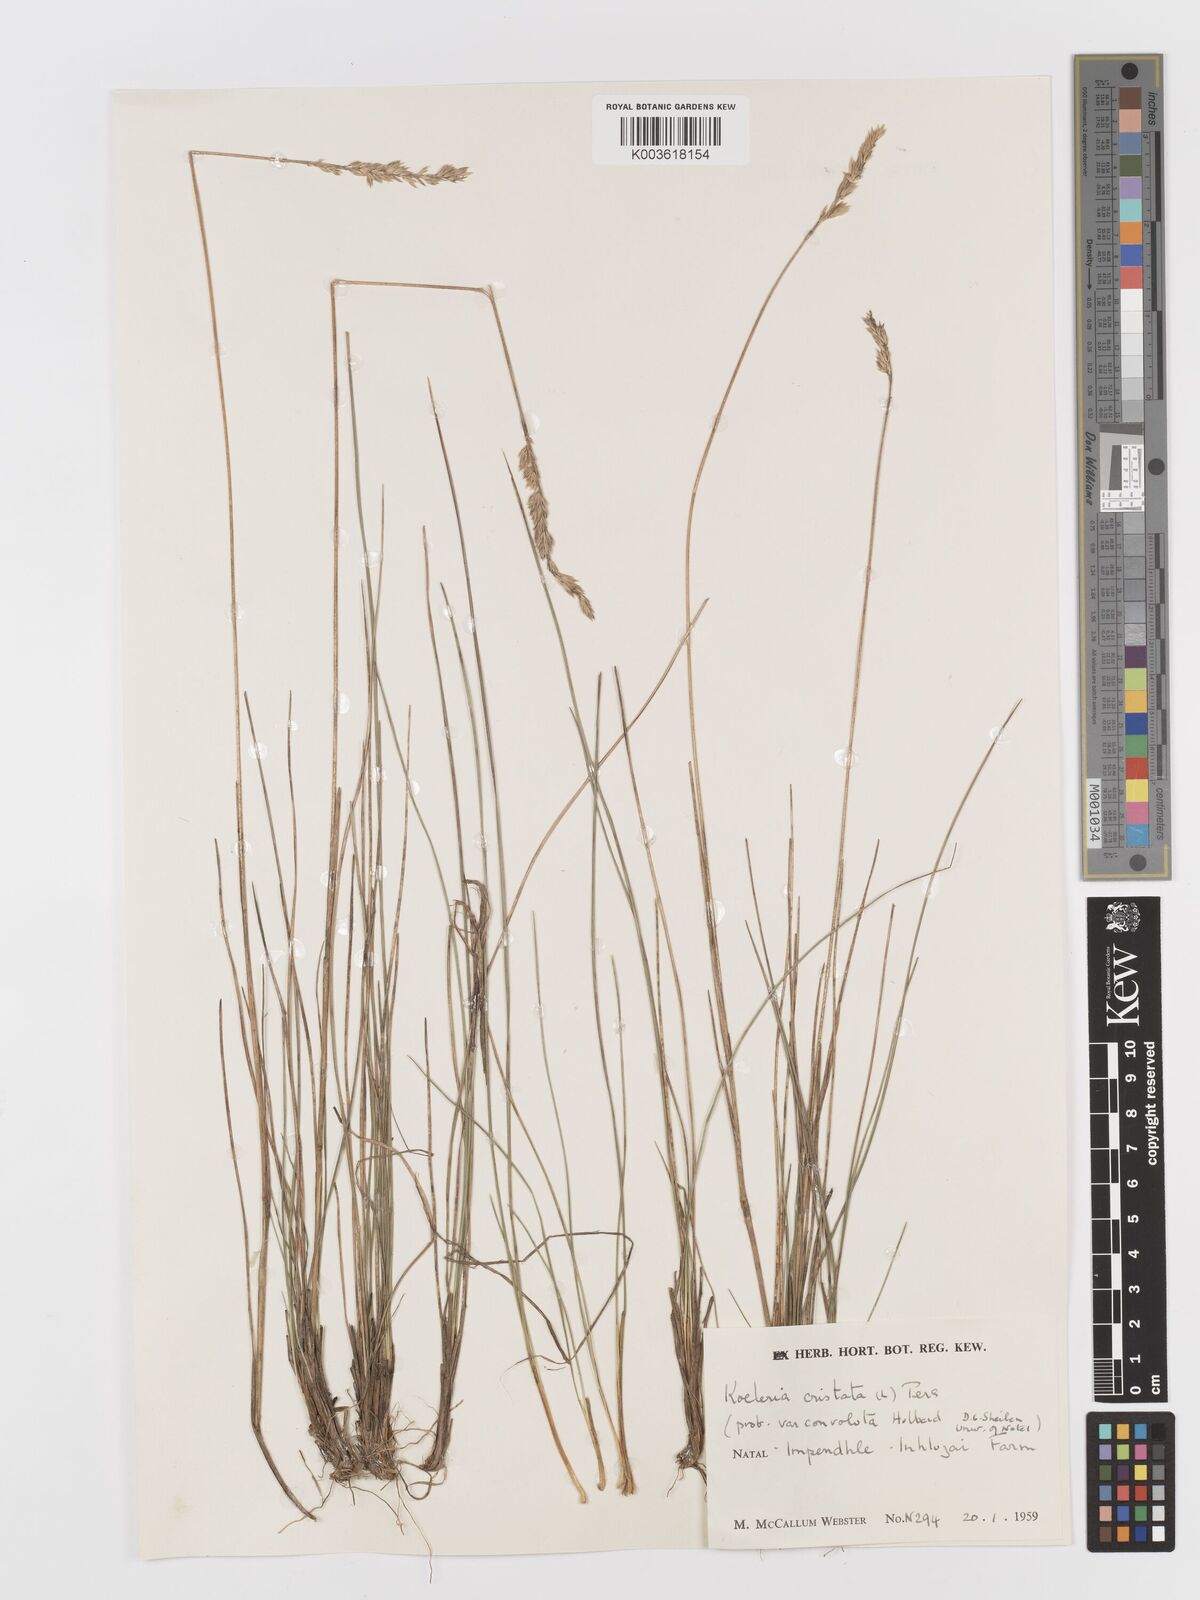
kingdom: Plantae
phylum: Tracheophyta
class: Liliopsida
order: Poales
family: Poaceae
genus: Koeleria
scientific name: Koeleria capensis
